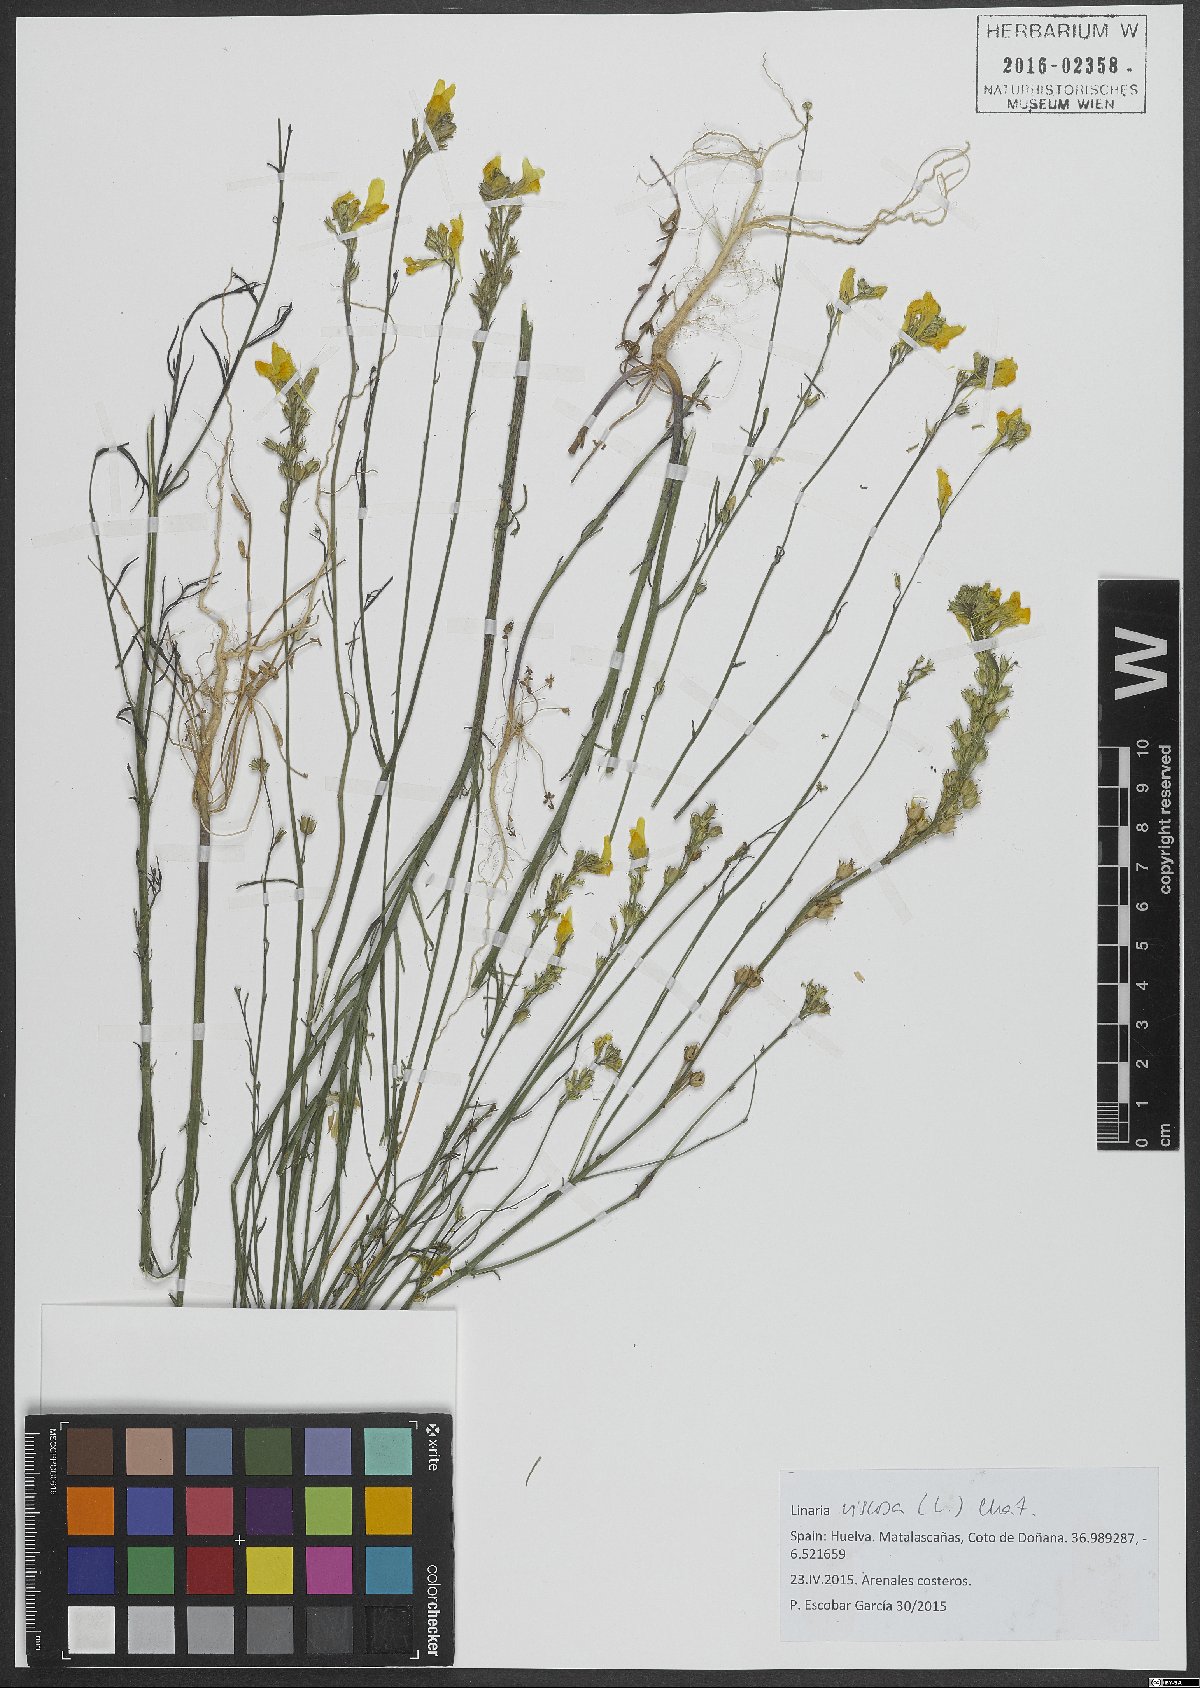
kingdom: Plantae
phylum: Tracheophyta
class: Magnoliopsida
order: Lamiales
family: Plantaginaceae
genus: Linaria
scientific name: Linaria viscosa
